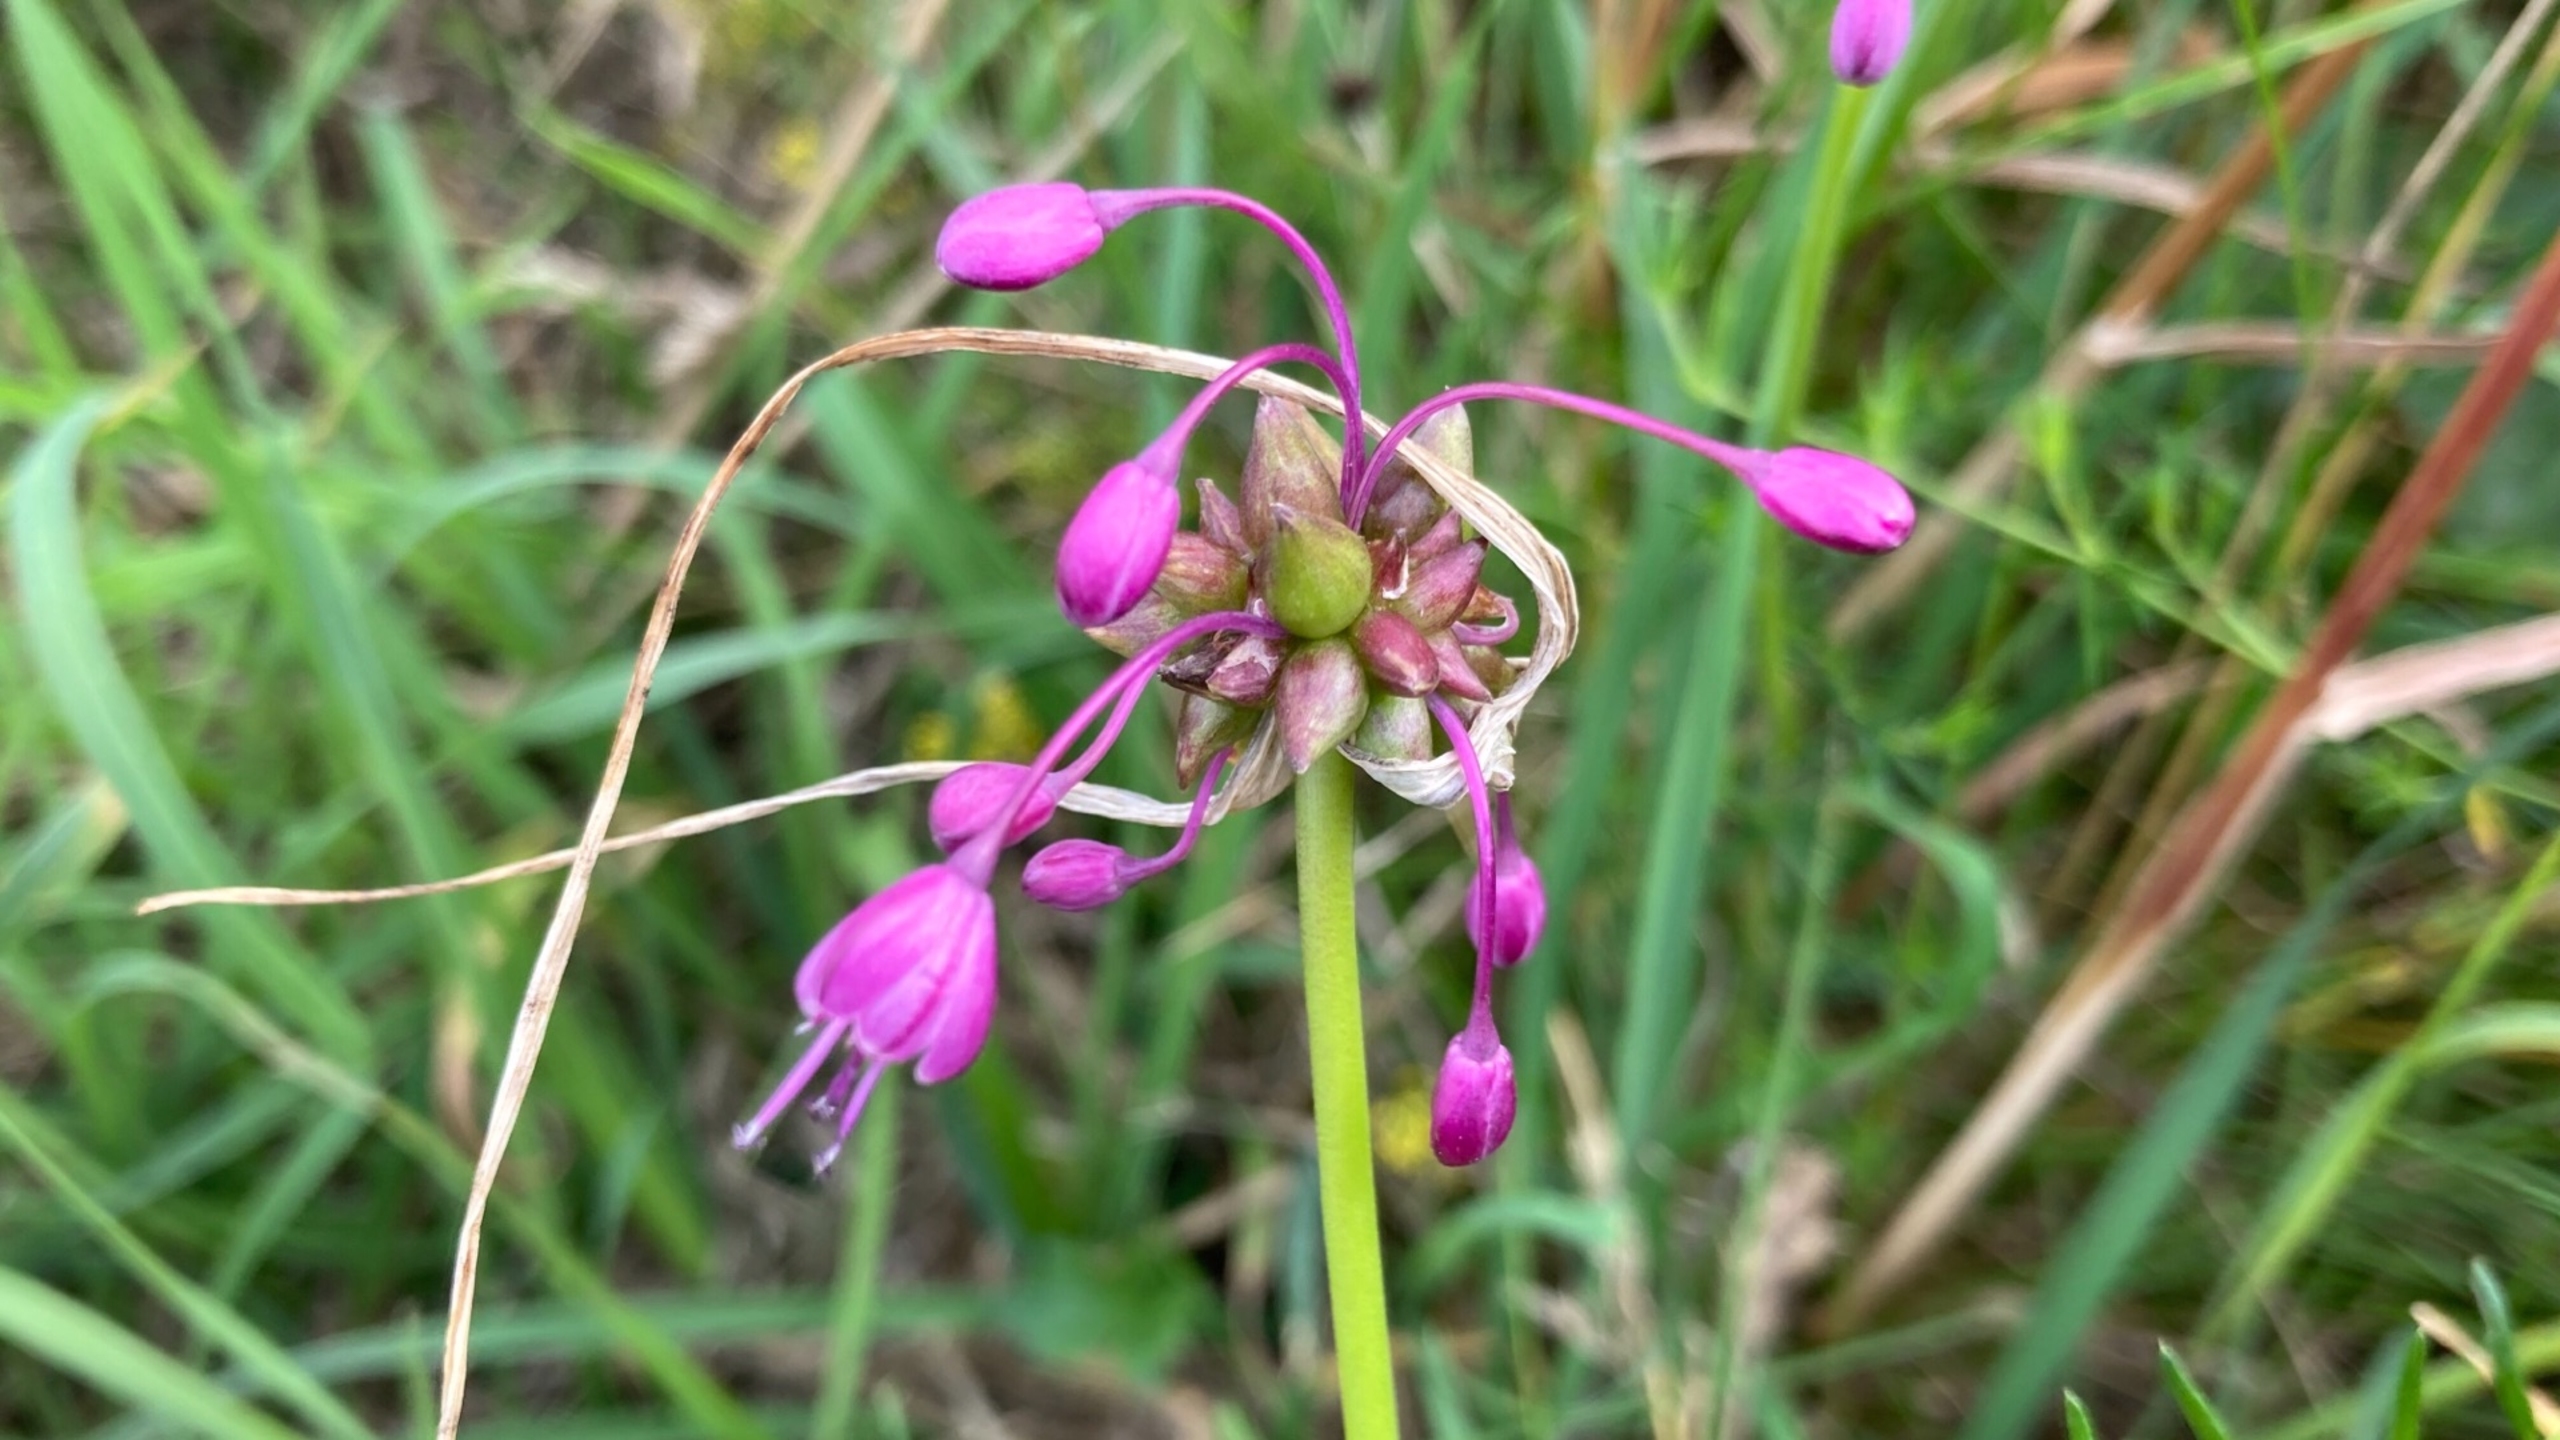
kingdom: Plantae
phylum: Tracheophyta
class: Liliopsida
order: Asparagales
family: Amaryllidaceae
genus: Allium
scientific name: Allium carinatum
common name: Kølet løg
